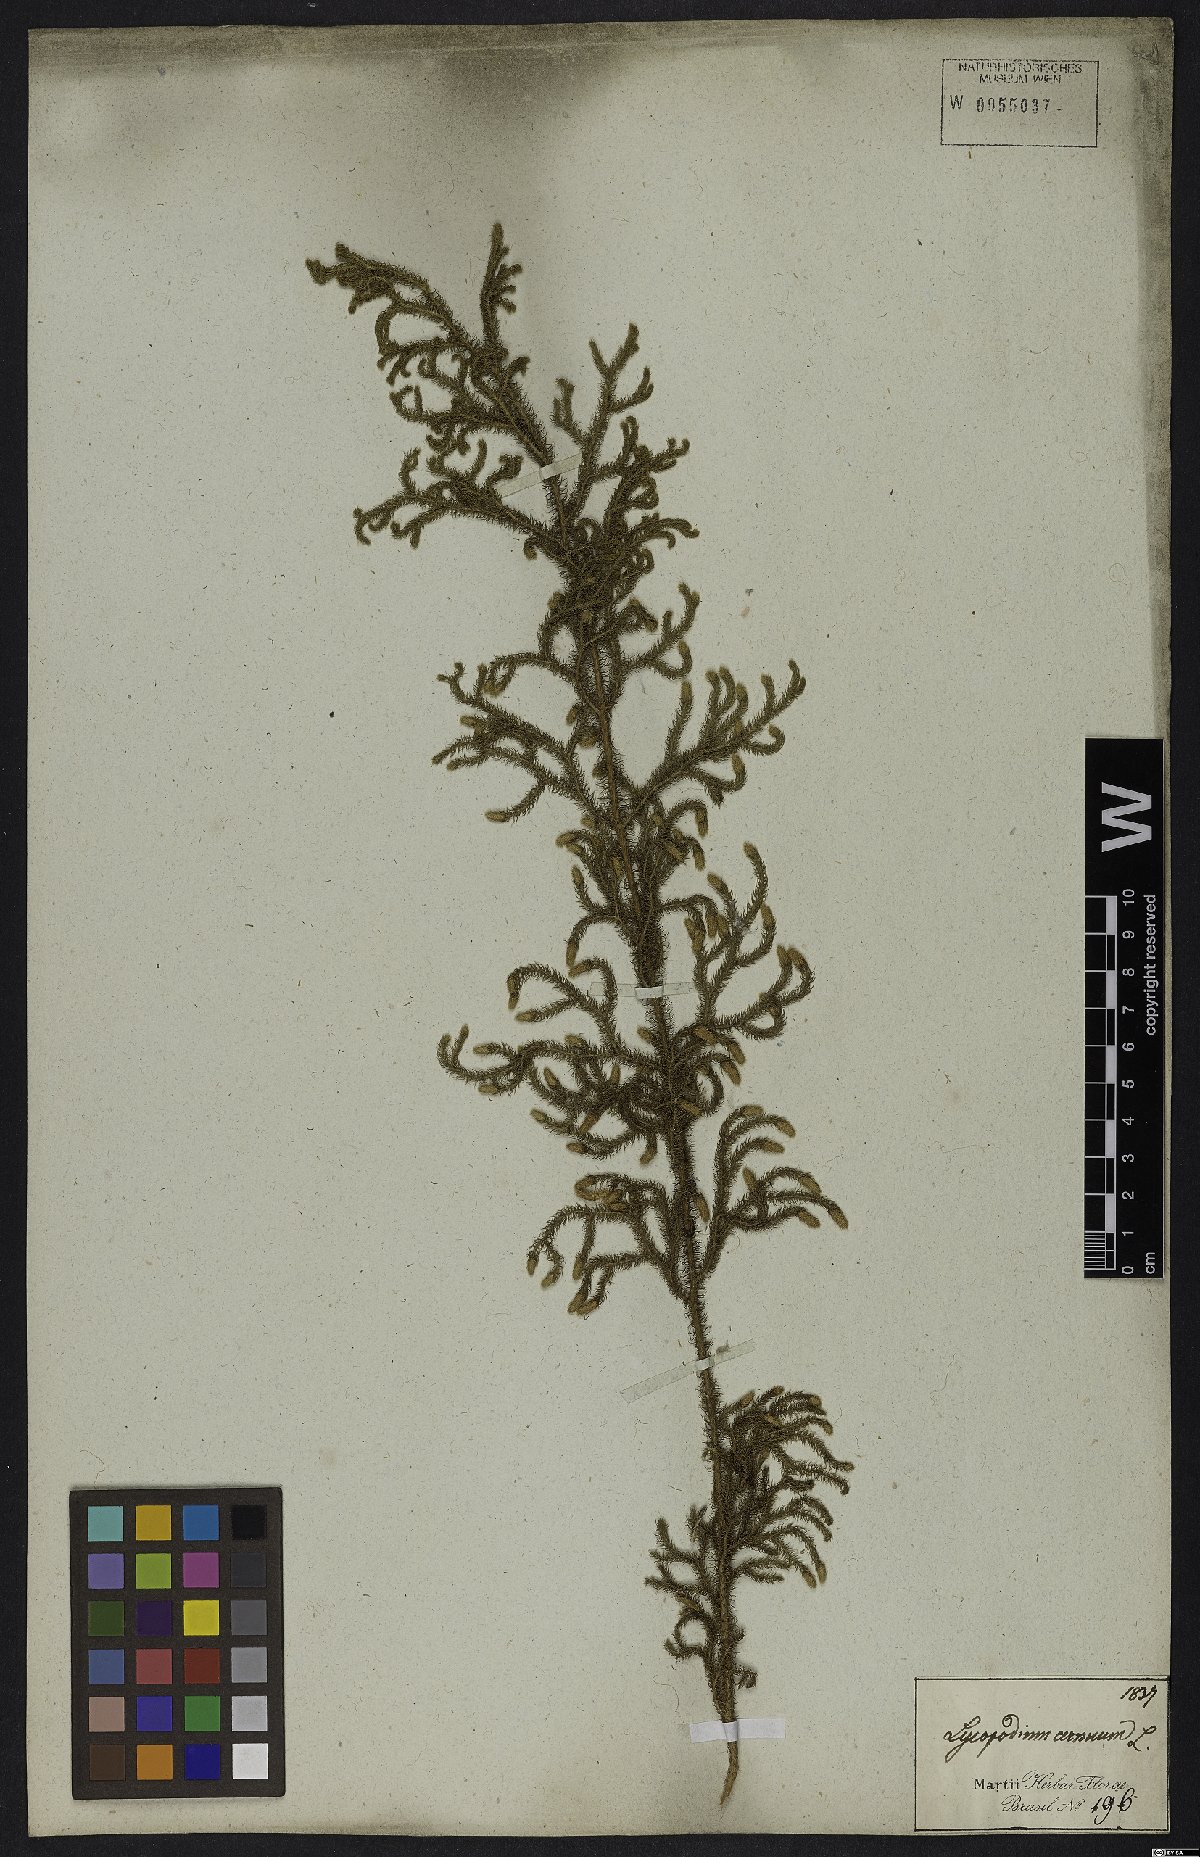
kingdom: Plantae
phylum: Tracheophyta
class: Lycopodiopsida
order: Lycopodiales
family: Lycopodiaceae
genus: Palhinhaea
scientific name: Palhinhaea cernua
